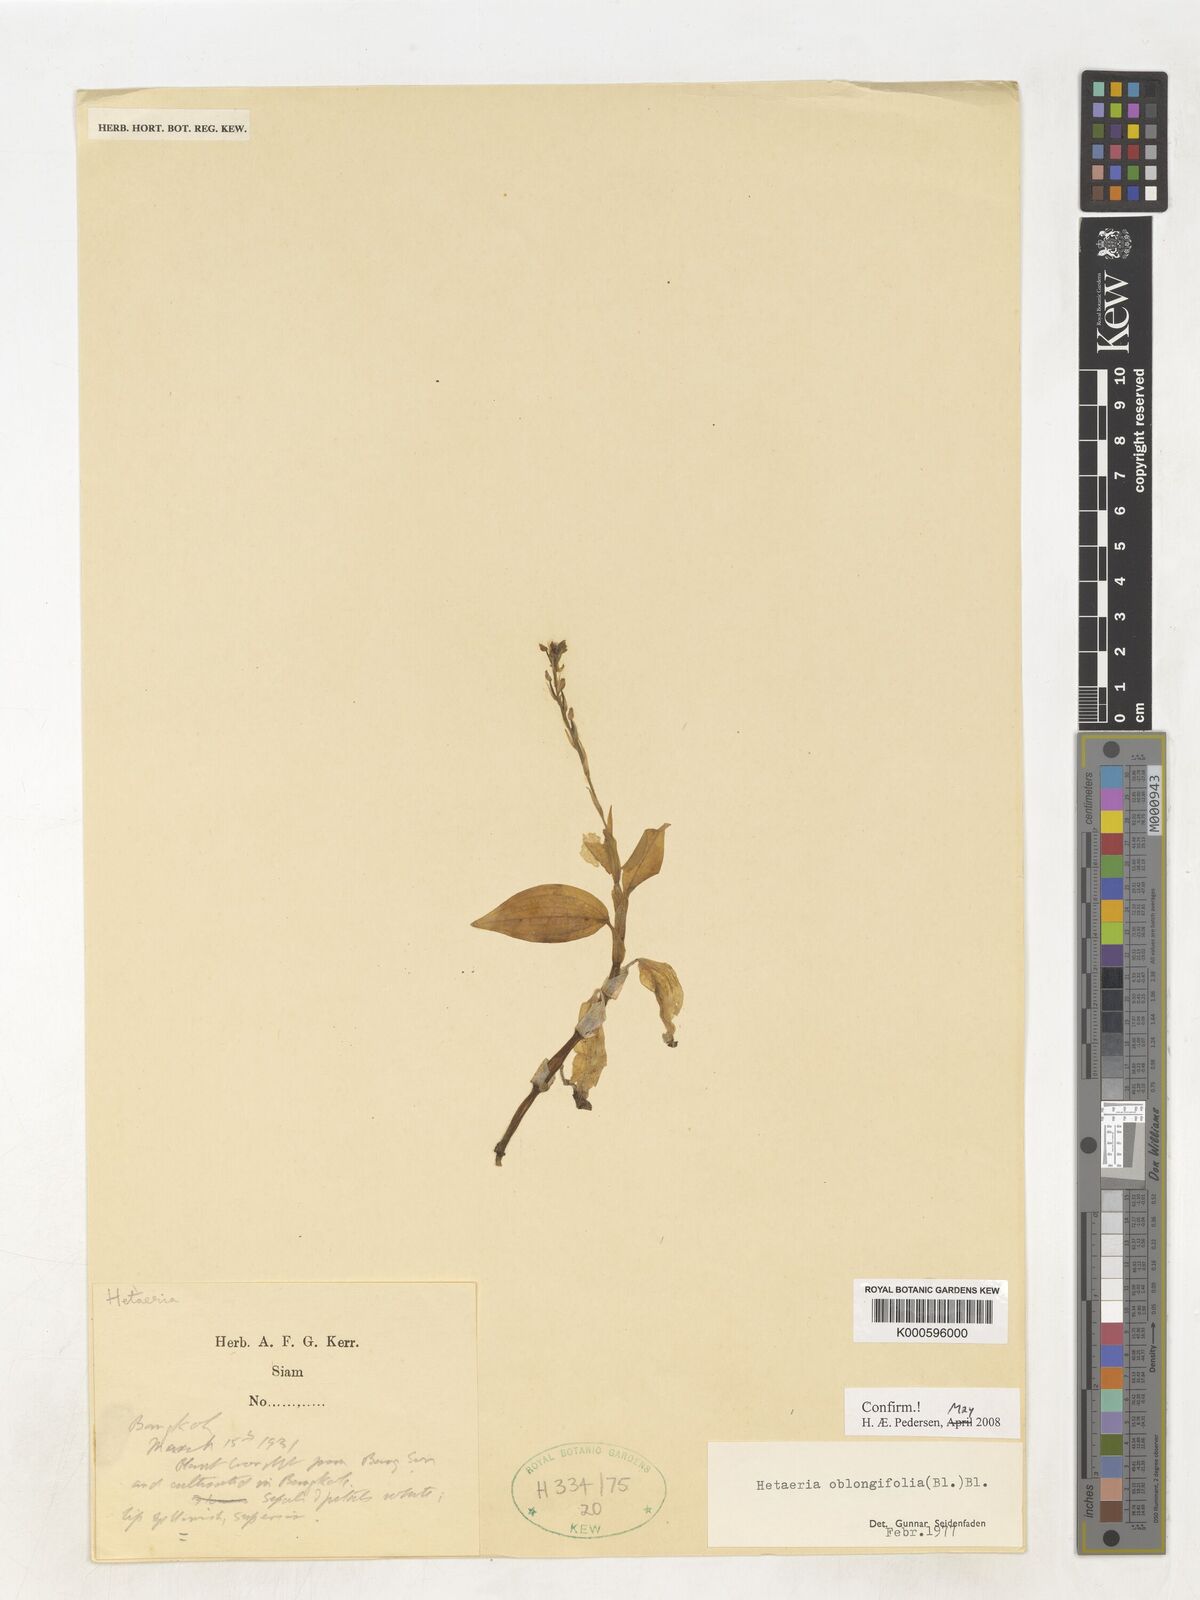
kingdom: Plantae
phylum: Tracheophyta
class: Liliopsida
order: Asparagales
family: Orchidaceae
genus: Hetaeria
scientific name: Hetaeria oblongifolia
